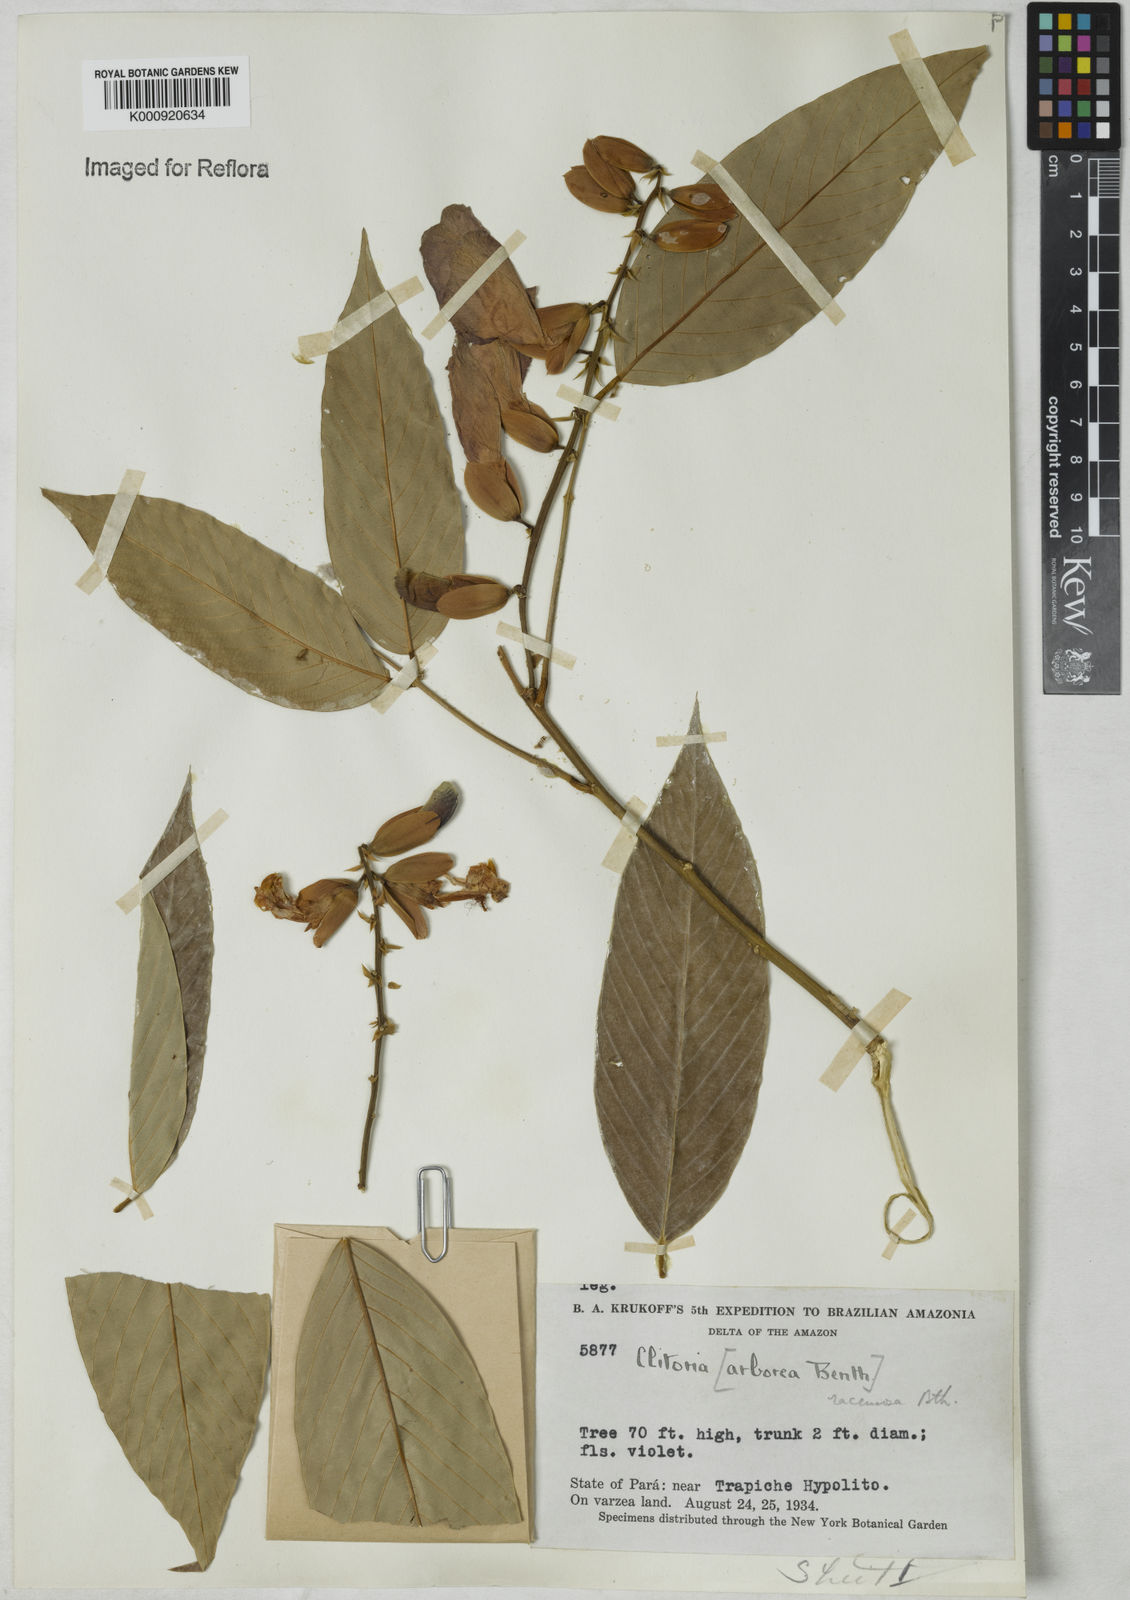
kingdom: Plantae
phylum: Tracheophyta
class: Magnoliopsida
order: Fabales
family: Fabaceae
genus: Clitoria
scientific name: Clitoria fairchildiana
